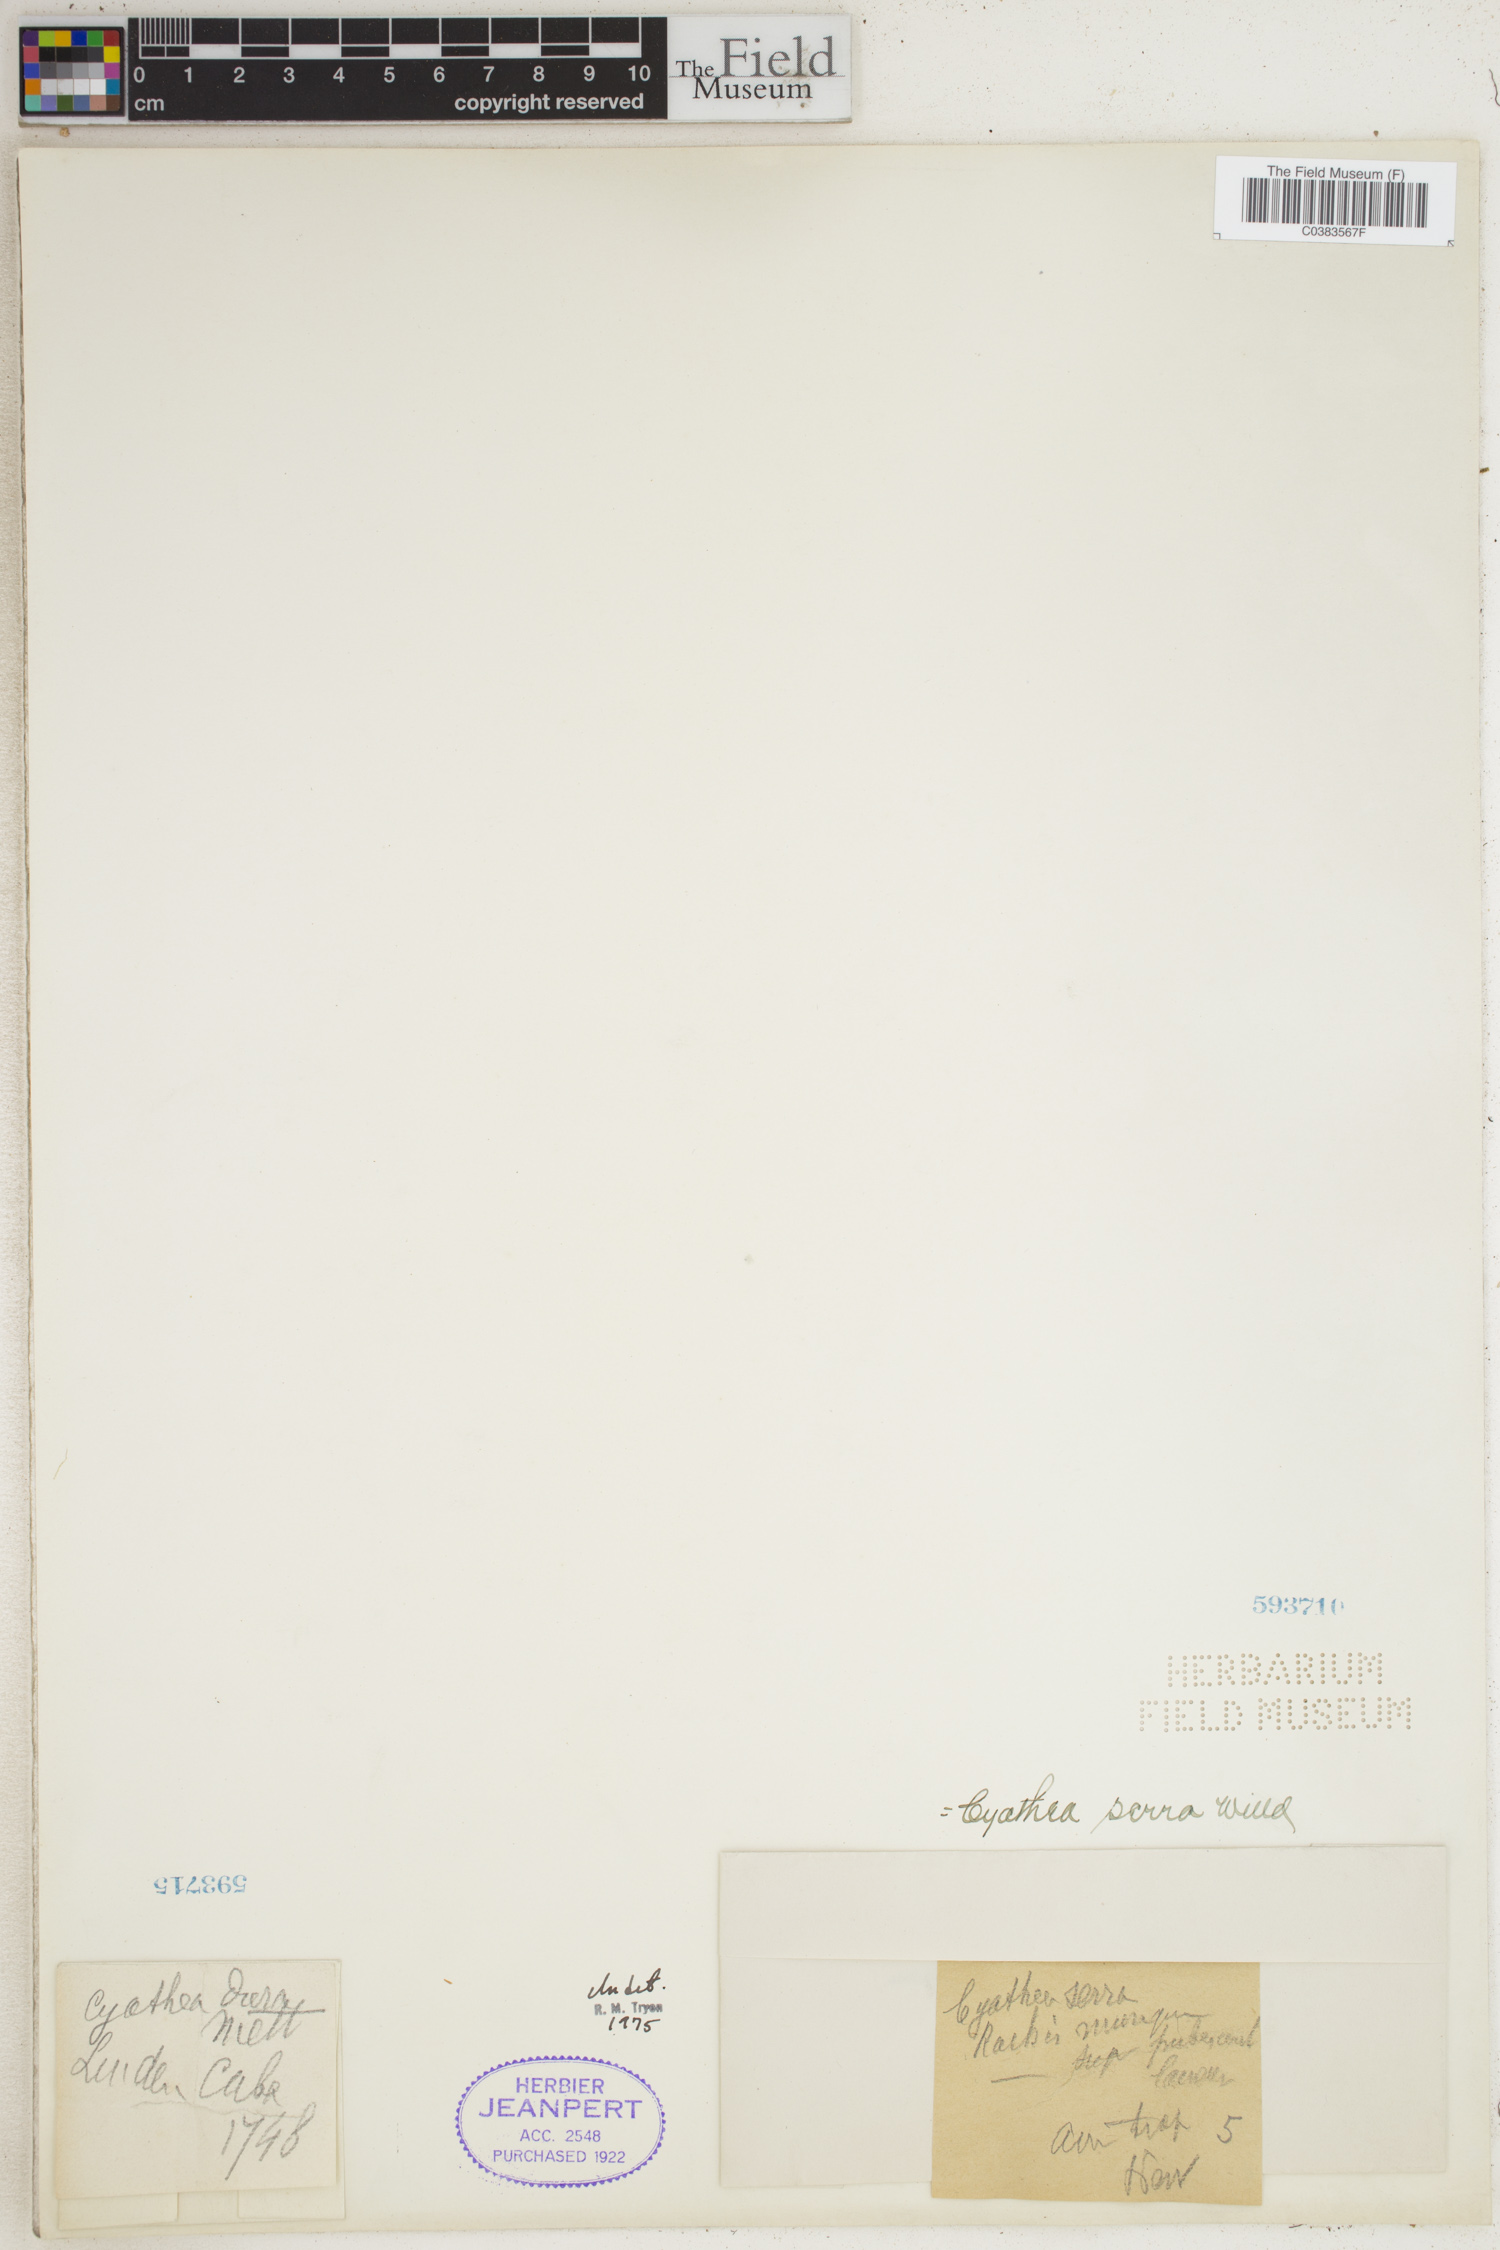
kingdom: Plantae
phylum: Tracheophyta
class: Polypodiopsida
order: Cyatheales
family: Cyatheaceae
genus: Cyathea
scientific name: Cyathea arborea
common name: West indian treefern
